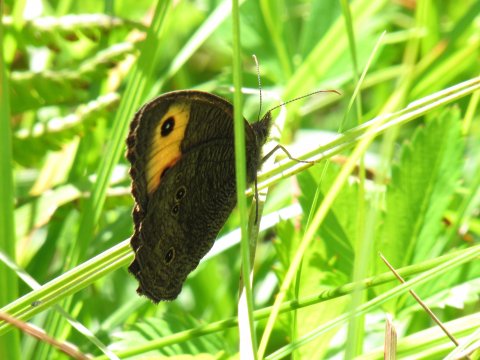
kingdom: Animalia
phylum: Arthropoda
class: Insecta
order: Lepidoptera
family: Nymphalidae
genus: Cercyonis
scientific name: Cercyonis pegala
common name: Common Wood-Nymph
